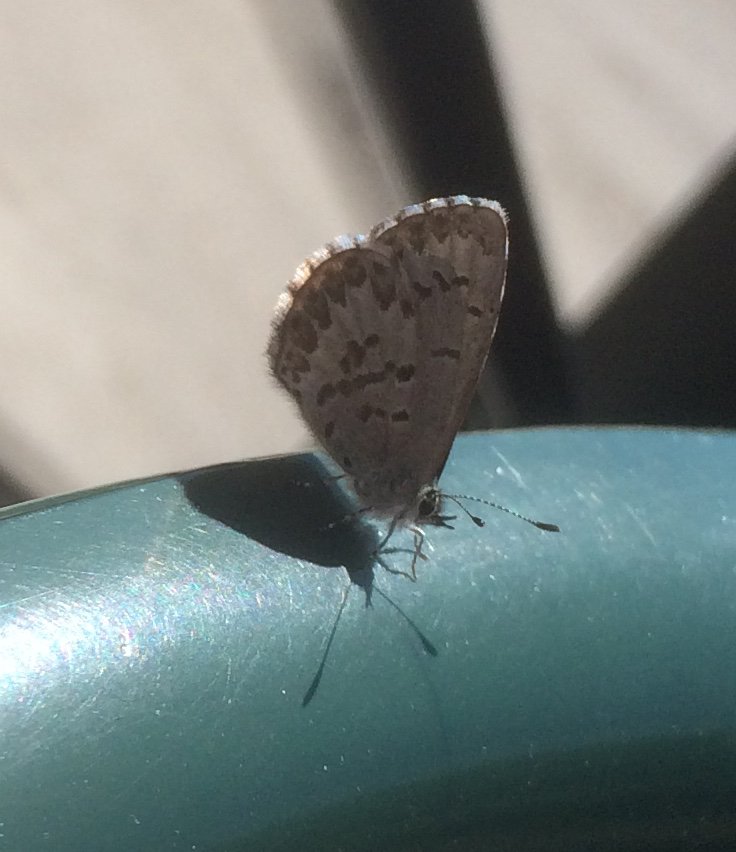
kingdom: Animalia
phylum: Arthropoda
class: Insecta
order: Lepidoptera
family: Lycaenidae
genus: Celastrina
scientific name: Celastrina lucia
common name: Northern Spring Azure
